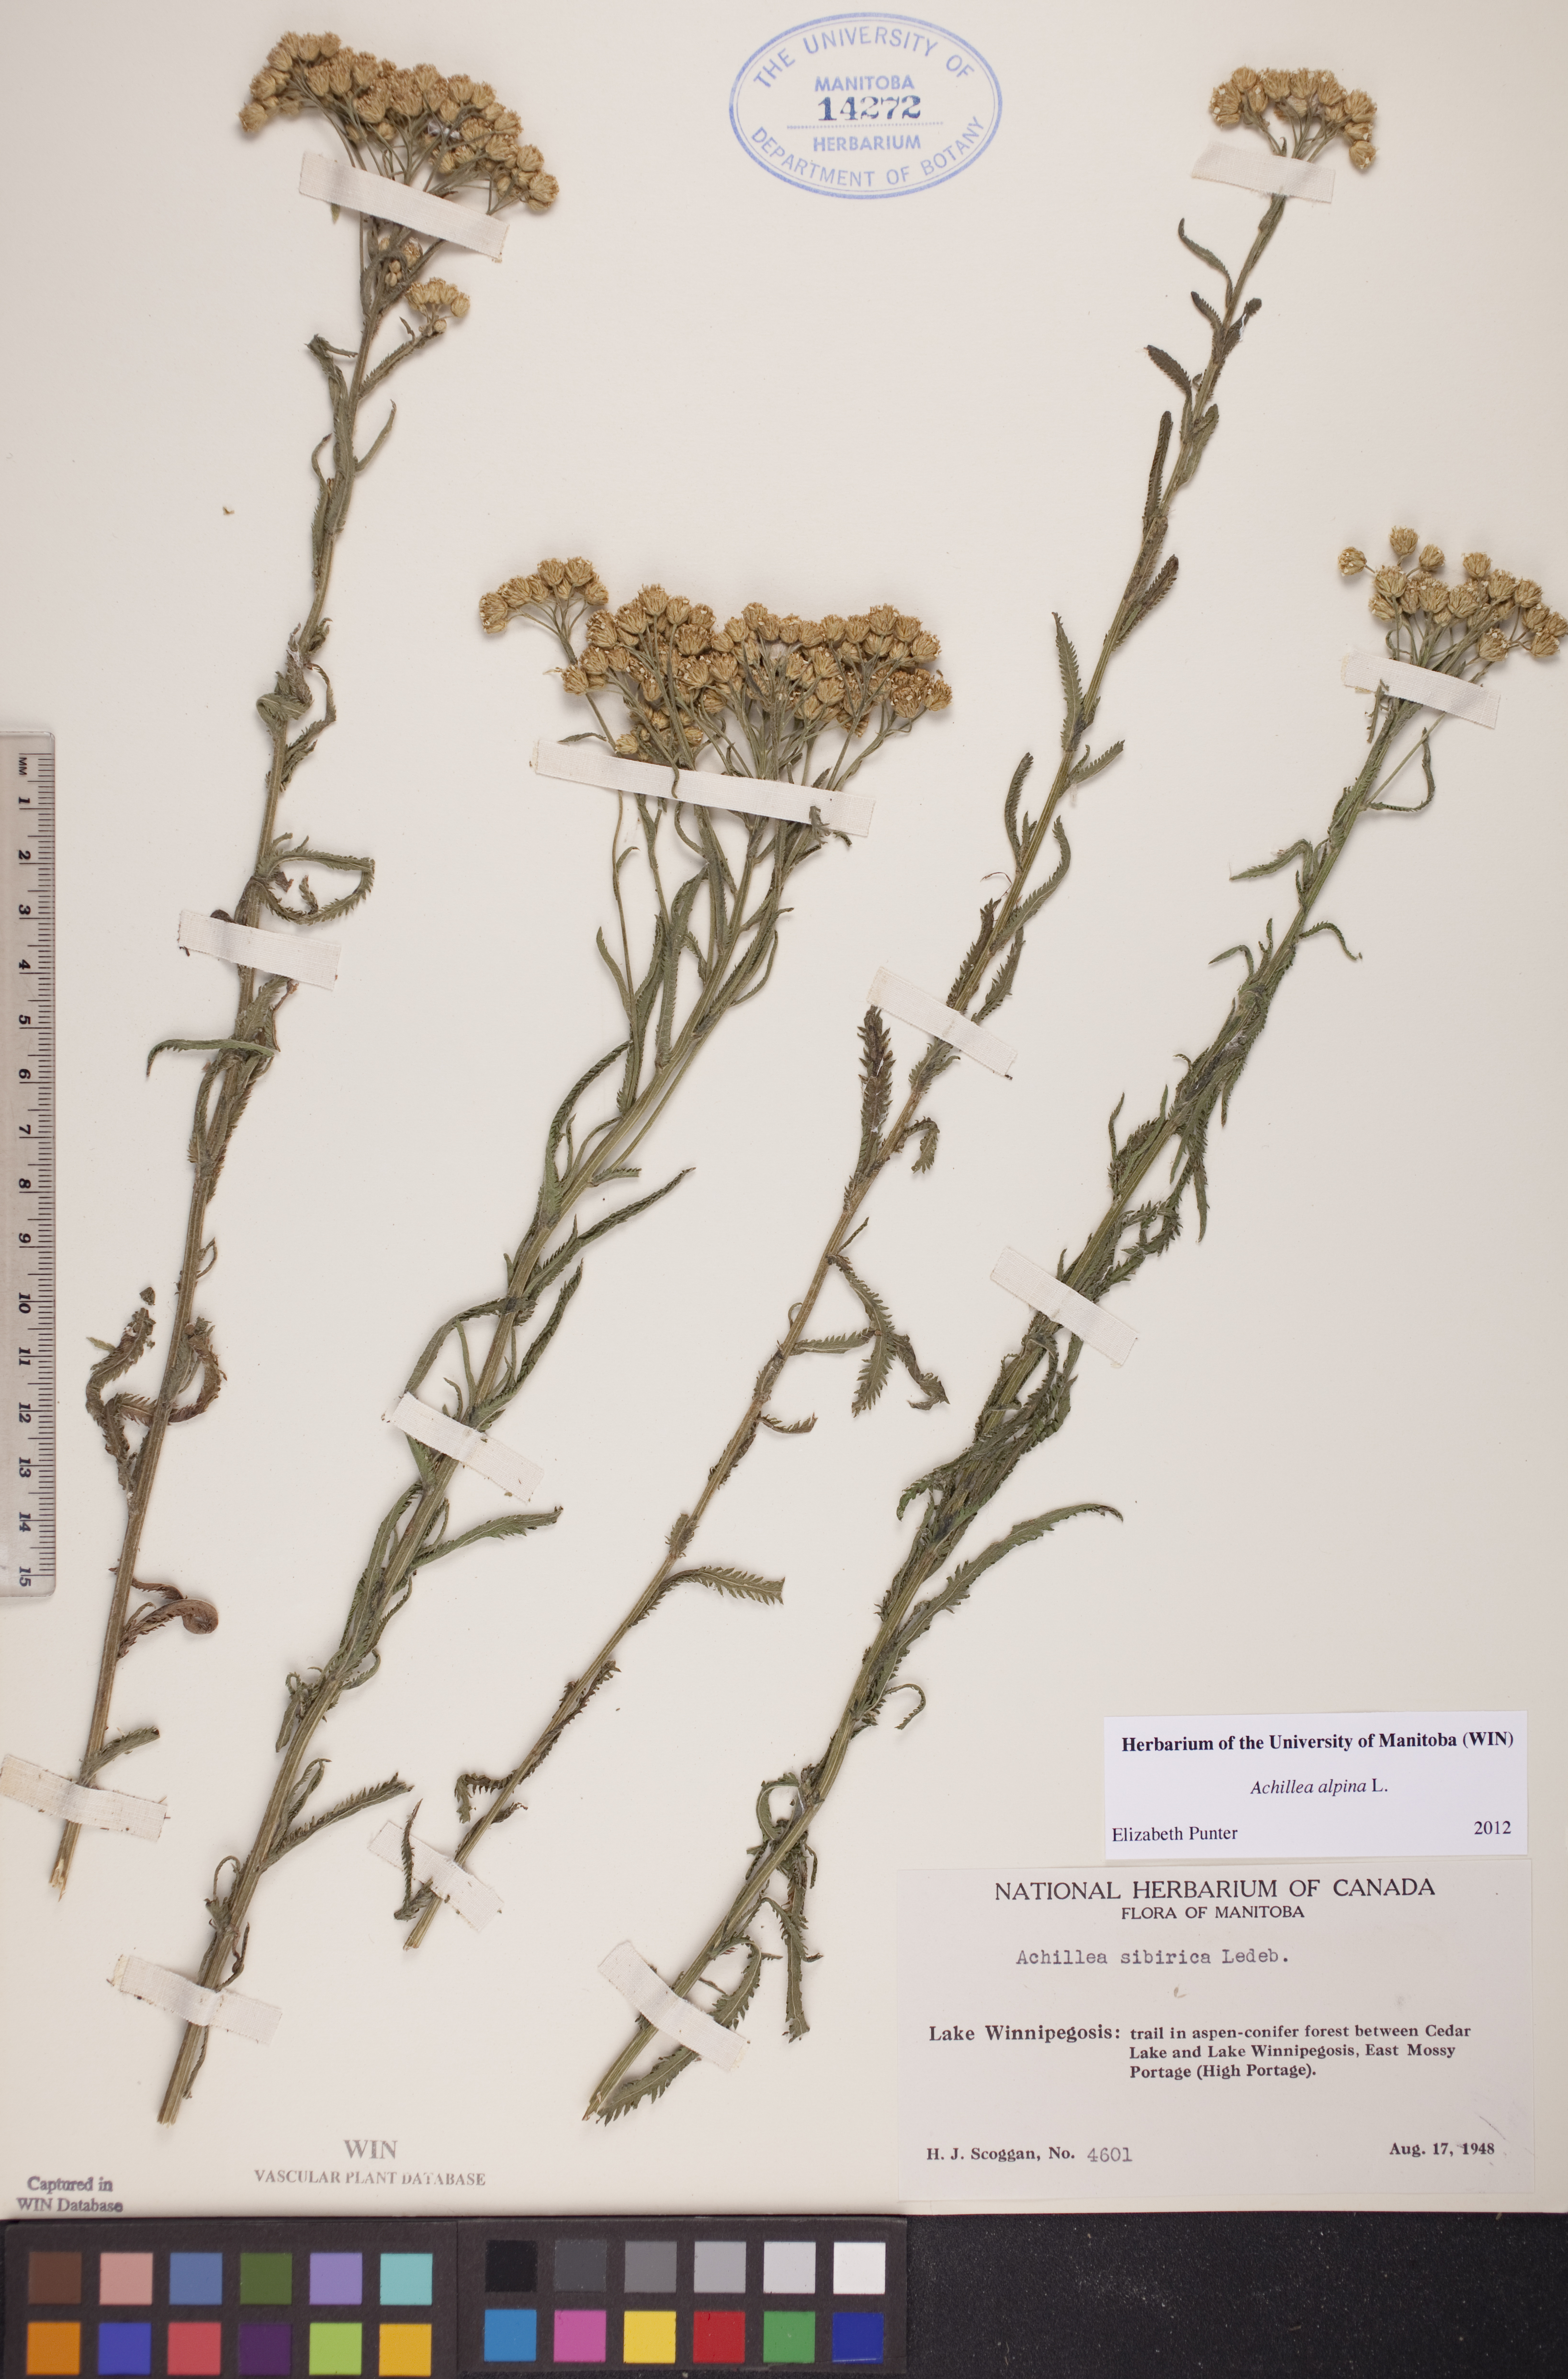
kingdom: Plantae
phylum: Tracheophyta
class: Magnoliopsida
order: Asterales
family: Asteraceae
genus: Achillea
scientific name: Achillea alpina
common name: Siberian yarrow
